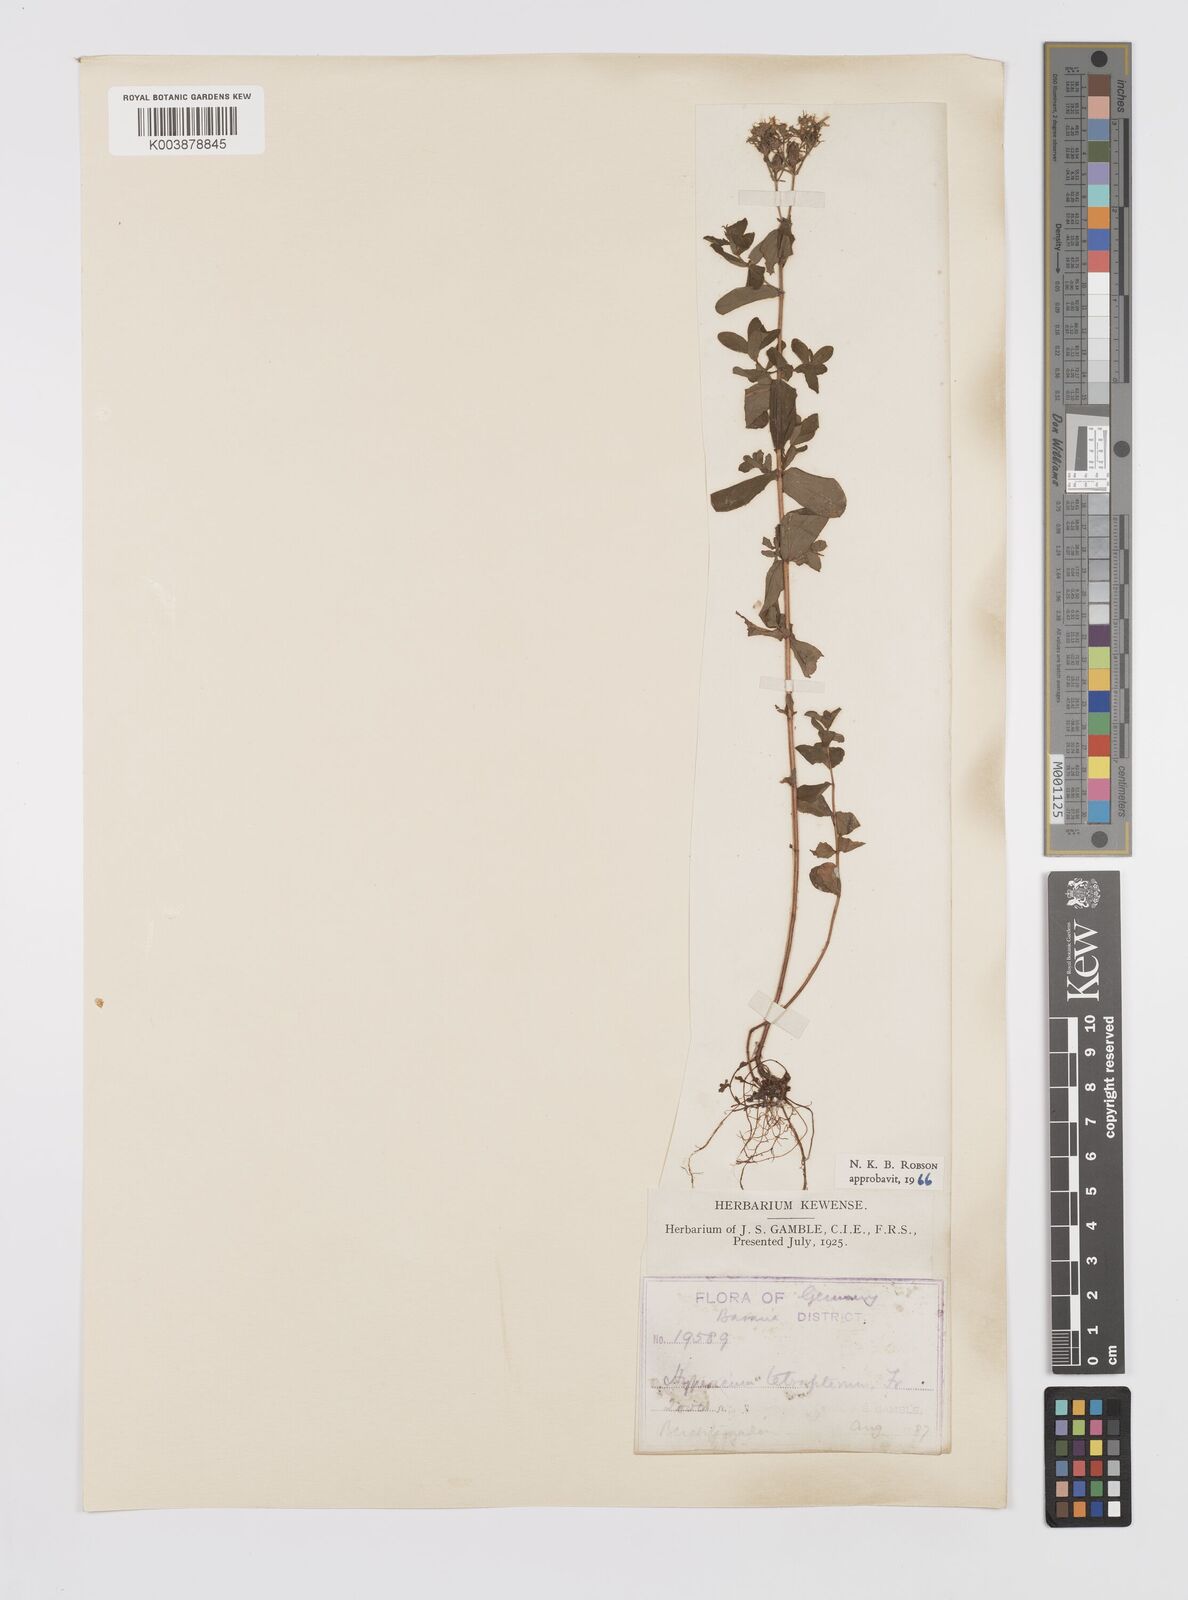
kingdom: Plantae
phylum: Tracheophyta
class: Magnoliopsida
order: Malpighiales
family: Hypericaceae
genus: Hypericum
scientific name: Hypericum tetrapterum
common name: Square-stalked st. john's-wort
